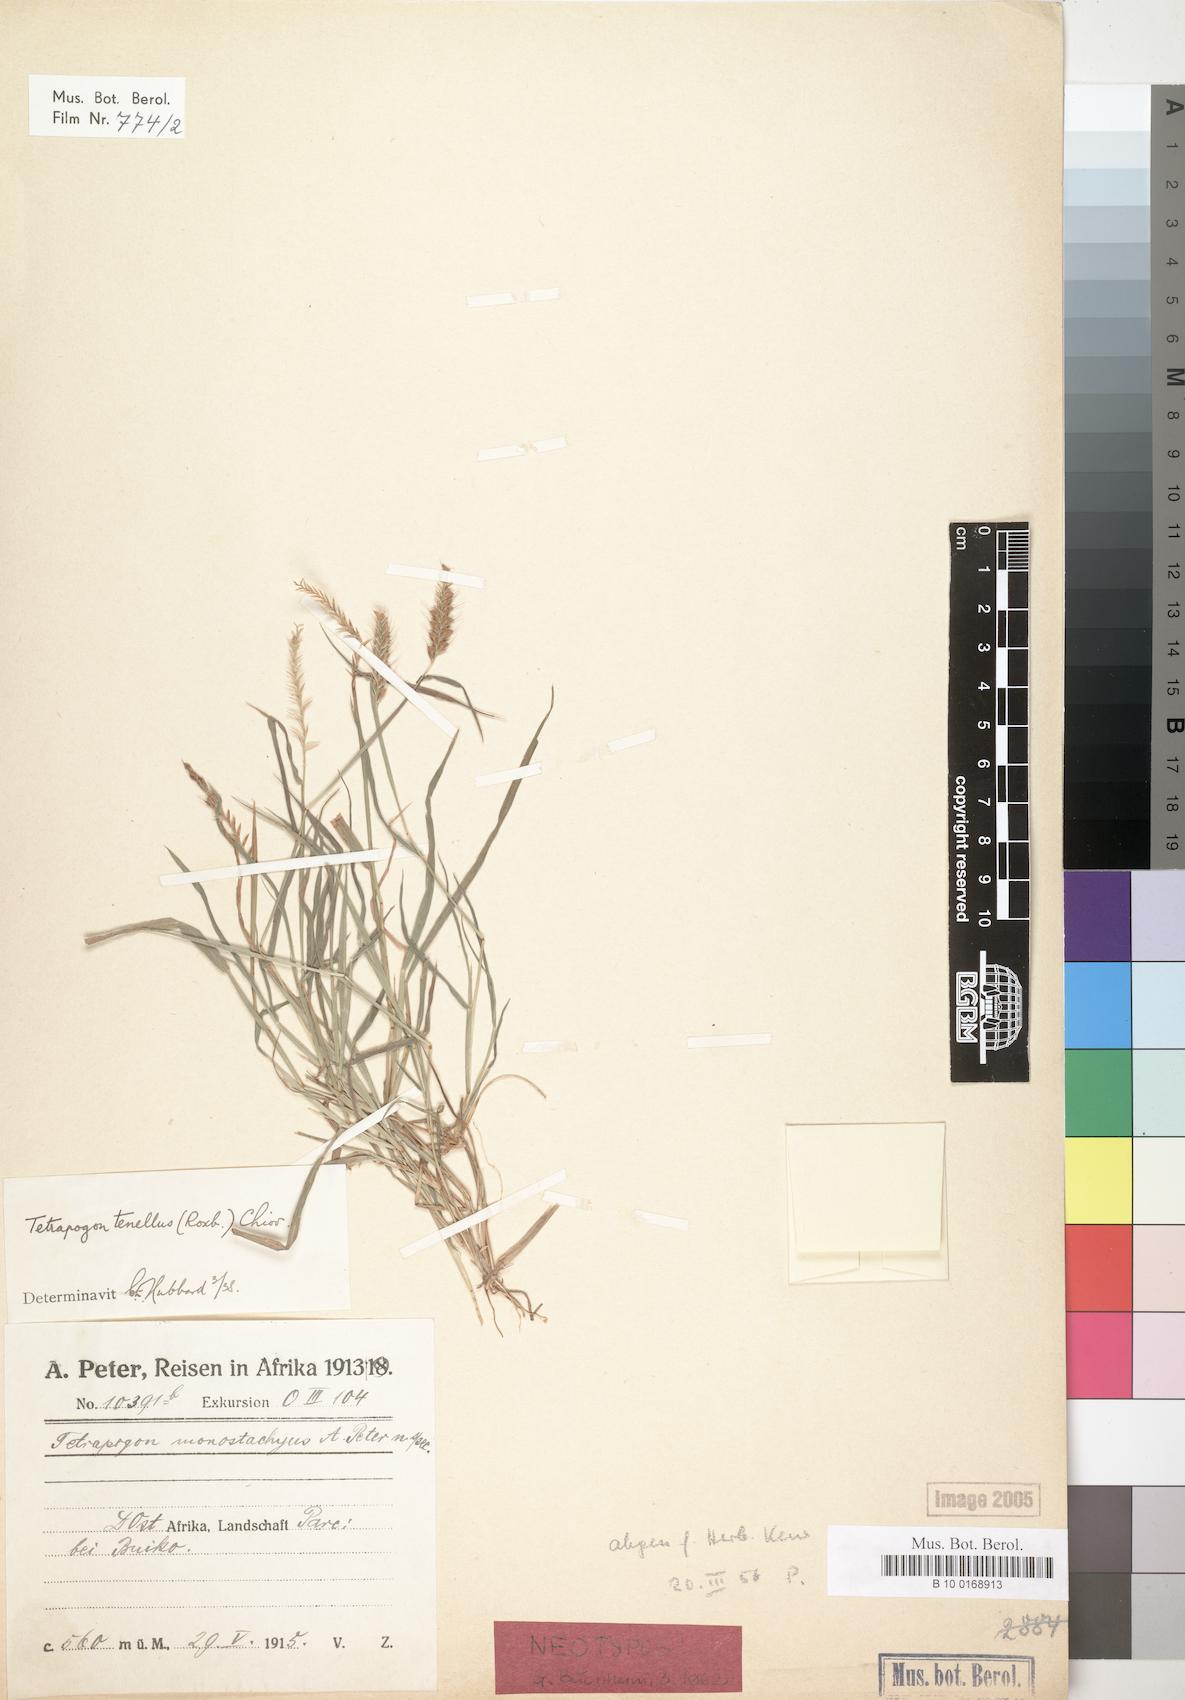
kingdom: Plantae
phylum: Tracheophyta
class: Liliopsida
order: Poales
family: Poaceae
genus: Tetrapogon
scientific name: Tetrapogon cenchriformis
